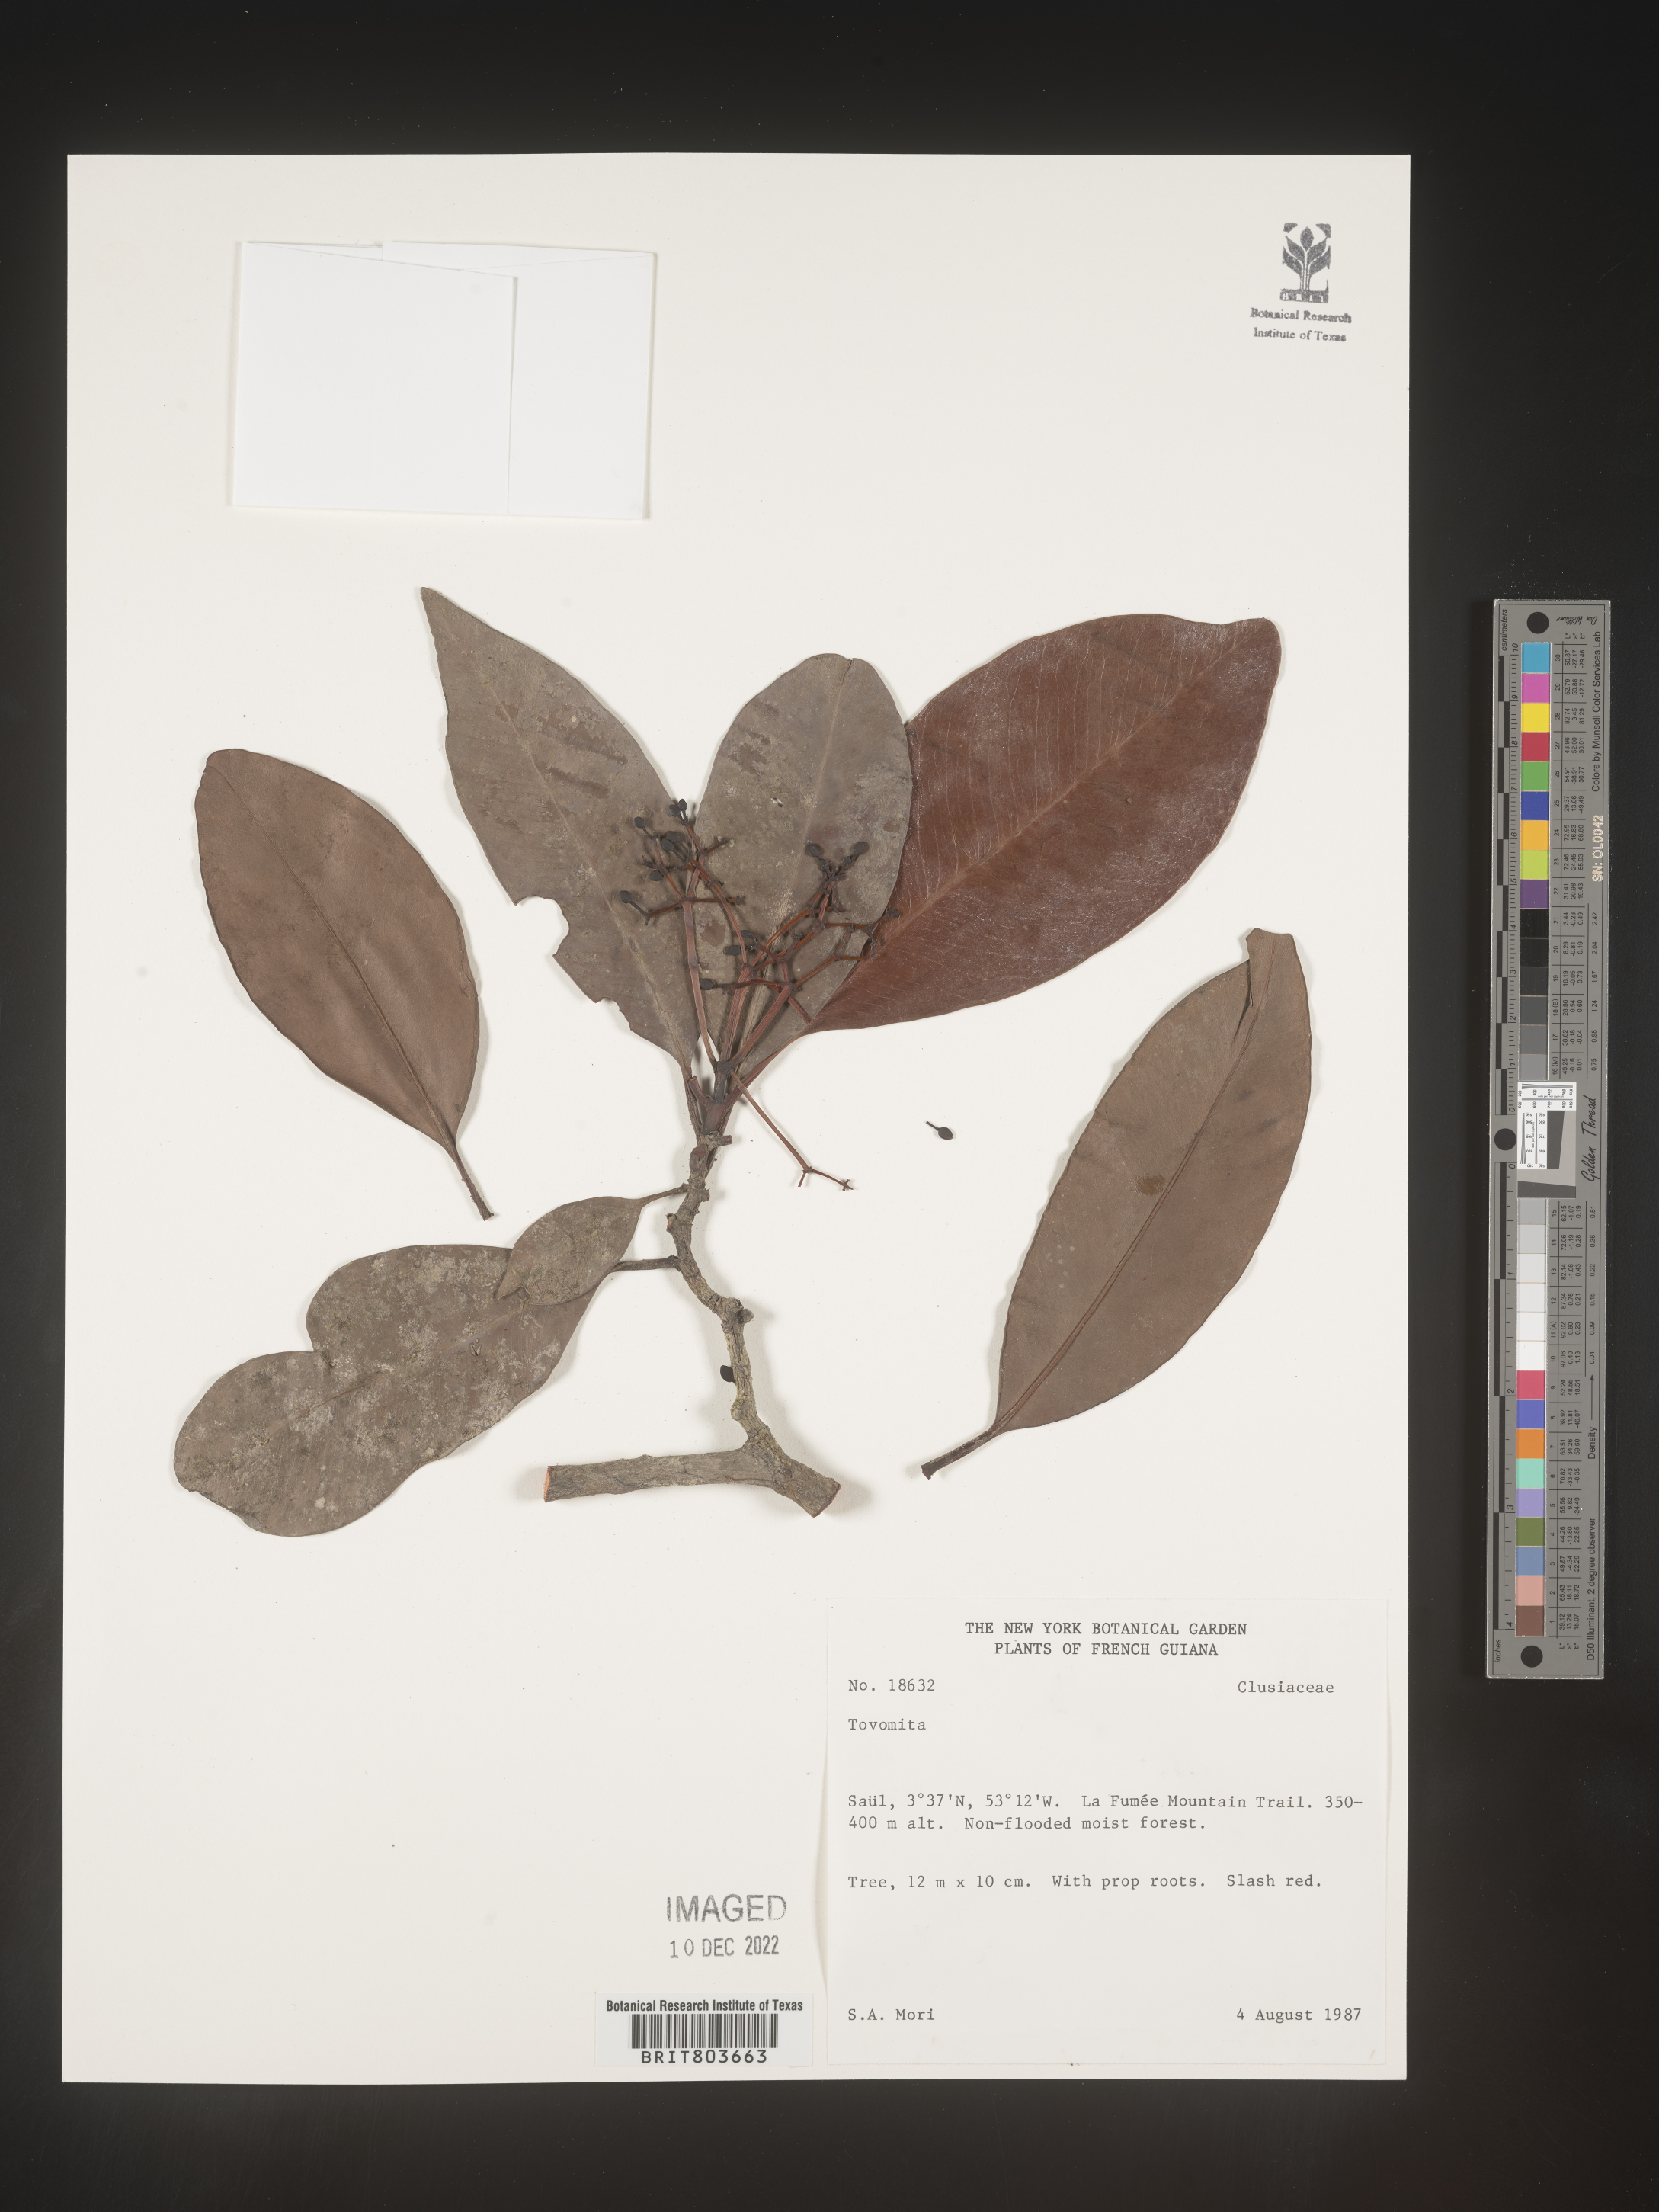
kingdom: Plantae
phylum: Tracheophyta
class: Magnoliopsida
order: Malpighiales
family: Clusiaceae
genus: Tovomita
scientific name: Tovomita
